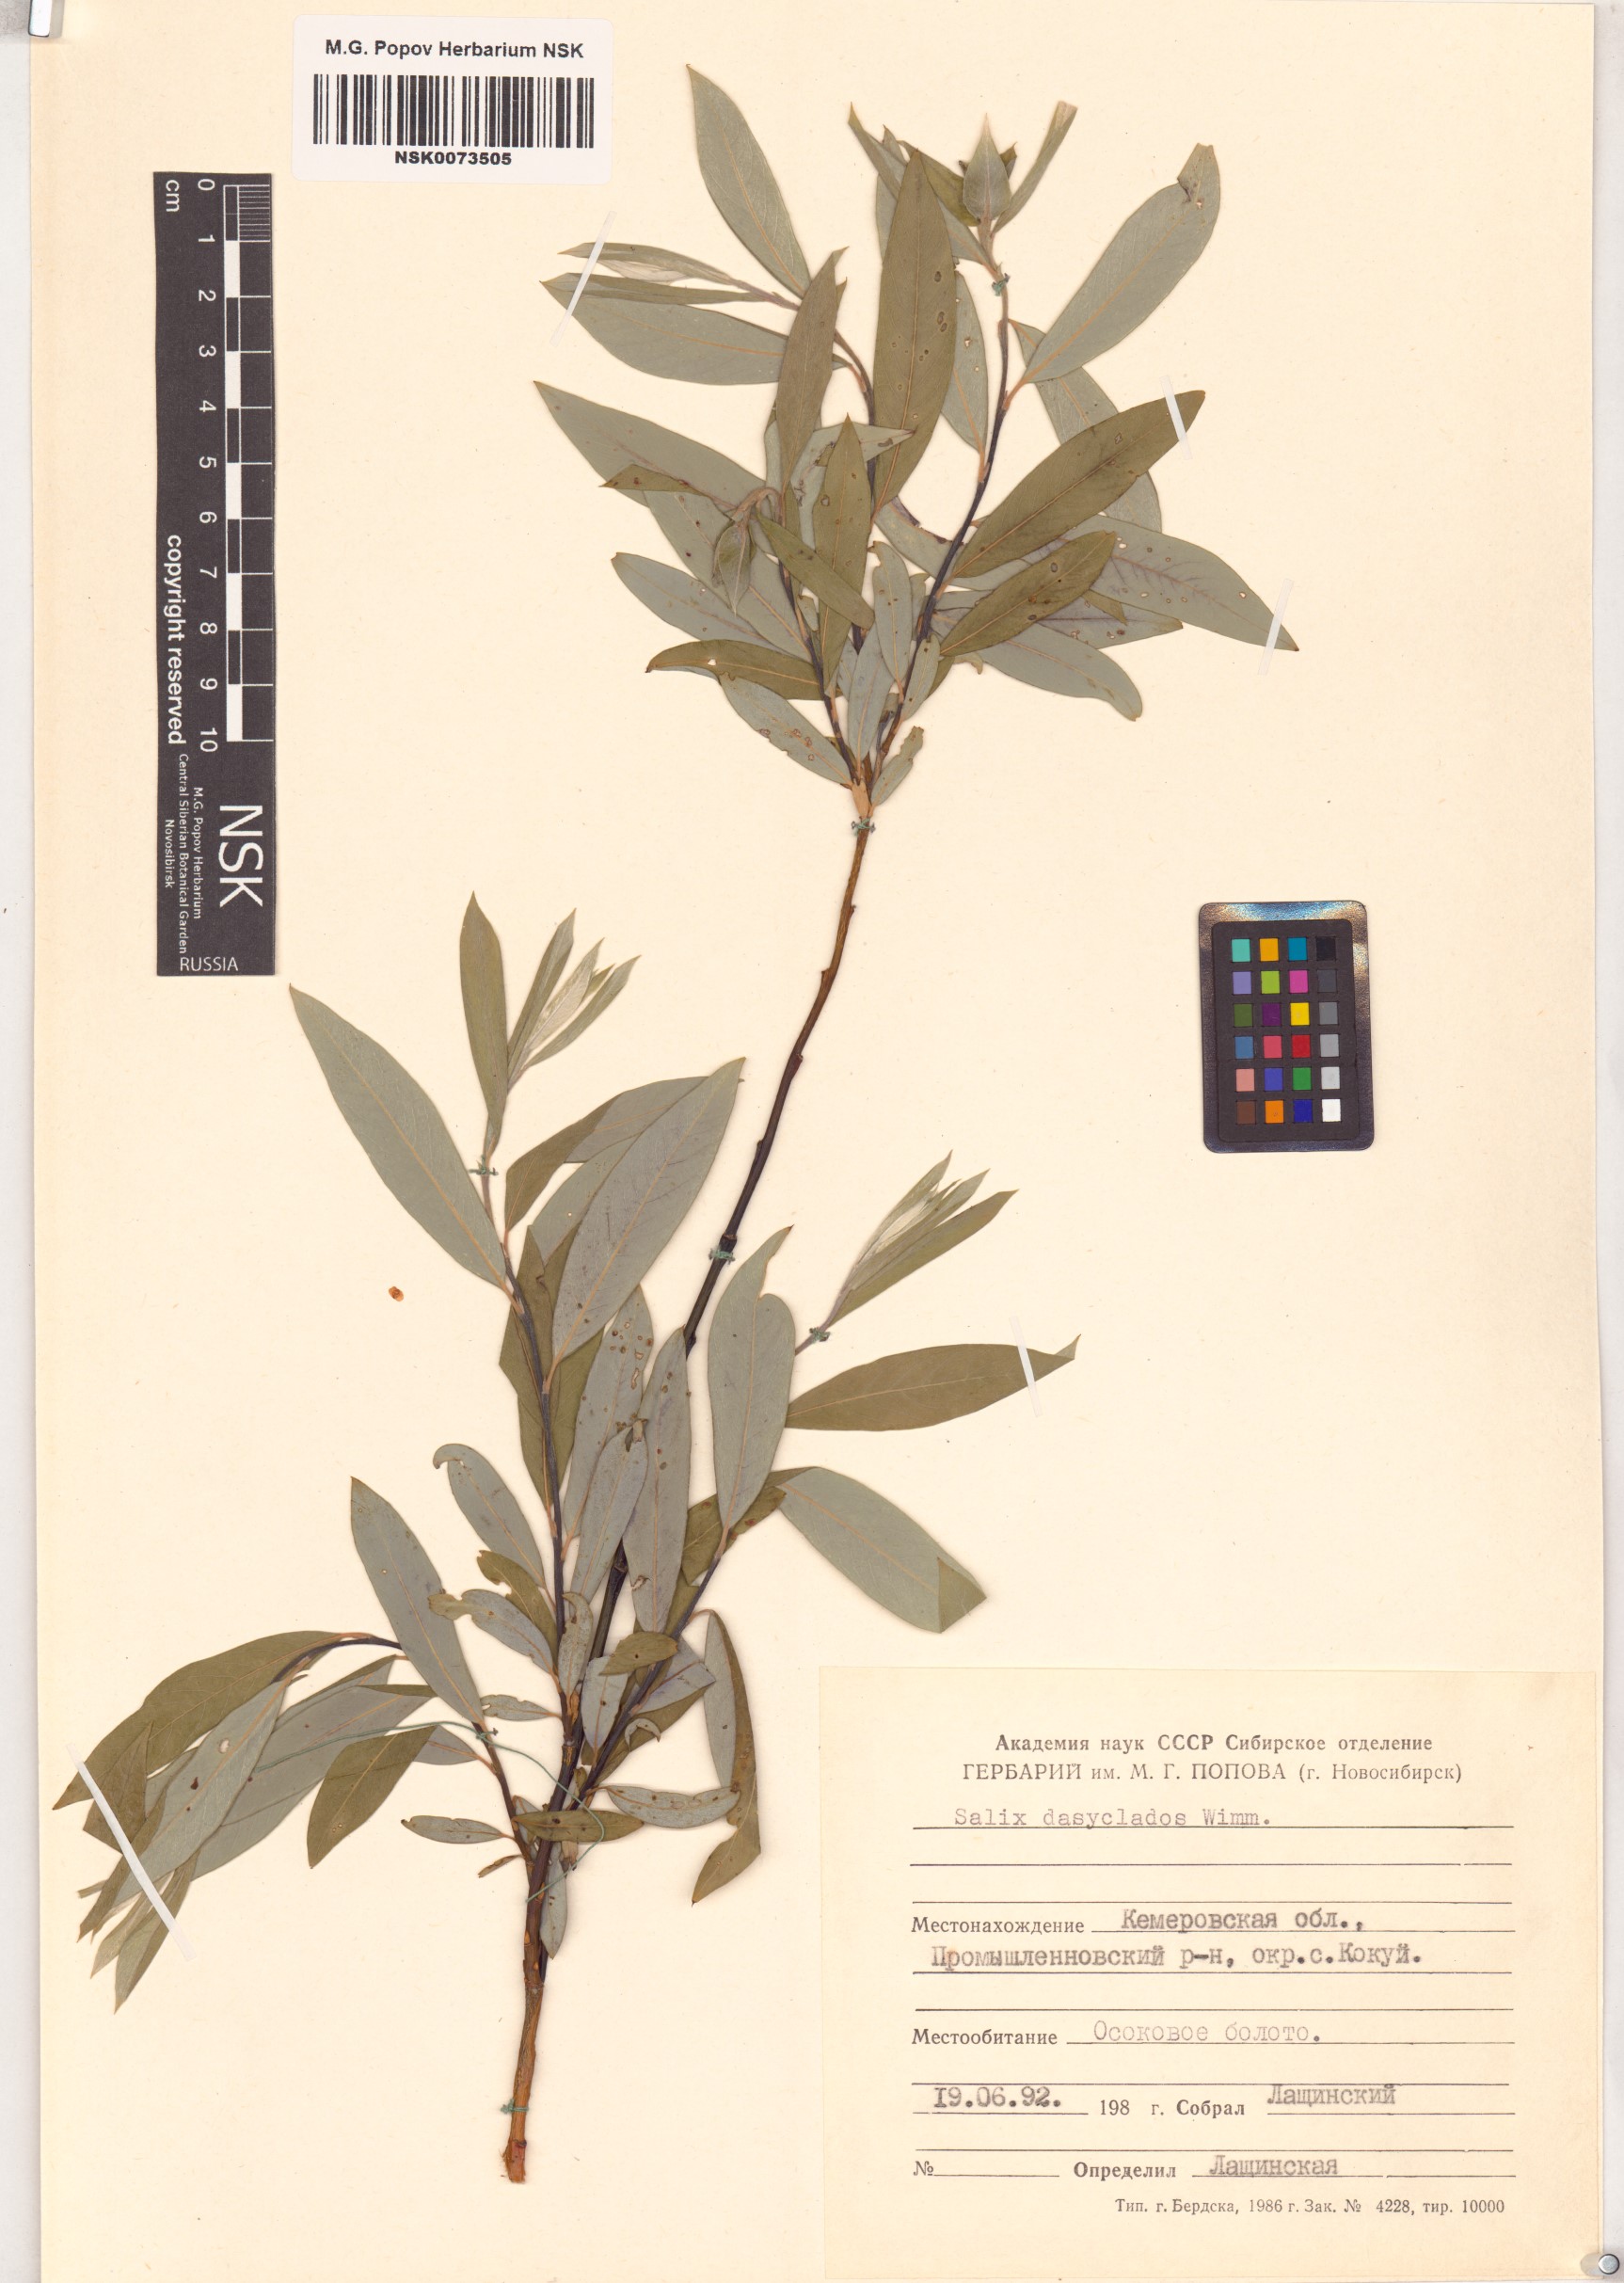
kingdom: Plantae
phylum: Tracheophyta
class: Magnoliopsida
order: Malpighiales
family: Salicaceae
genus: Salix
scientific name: Salix gmelinii
